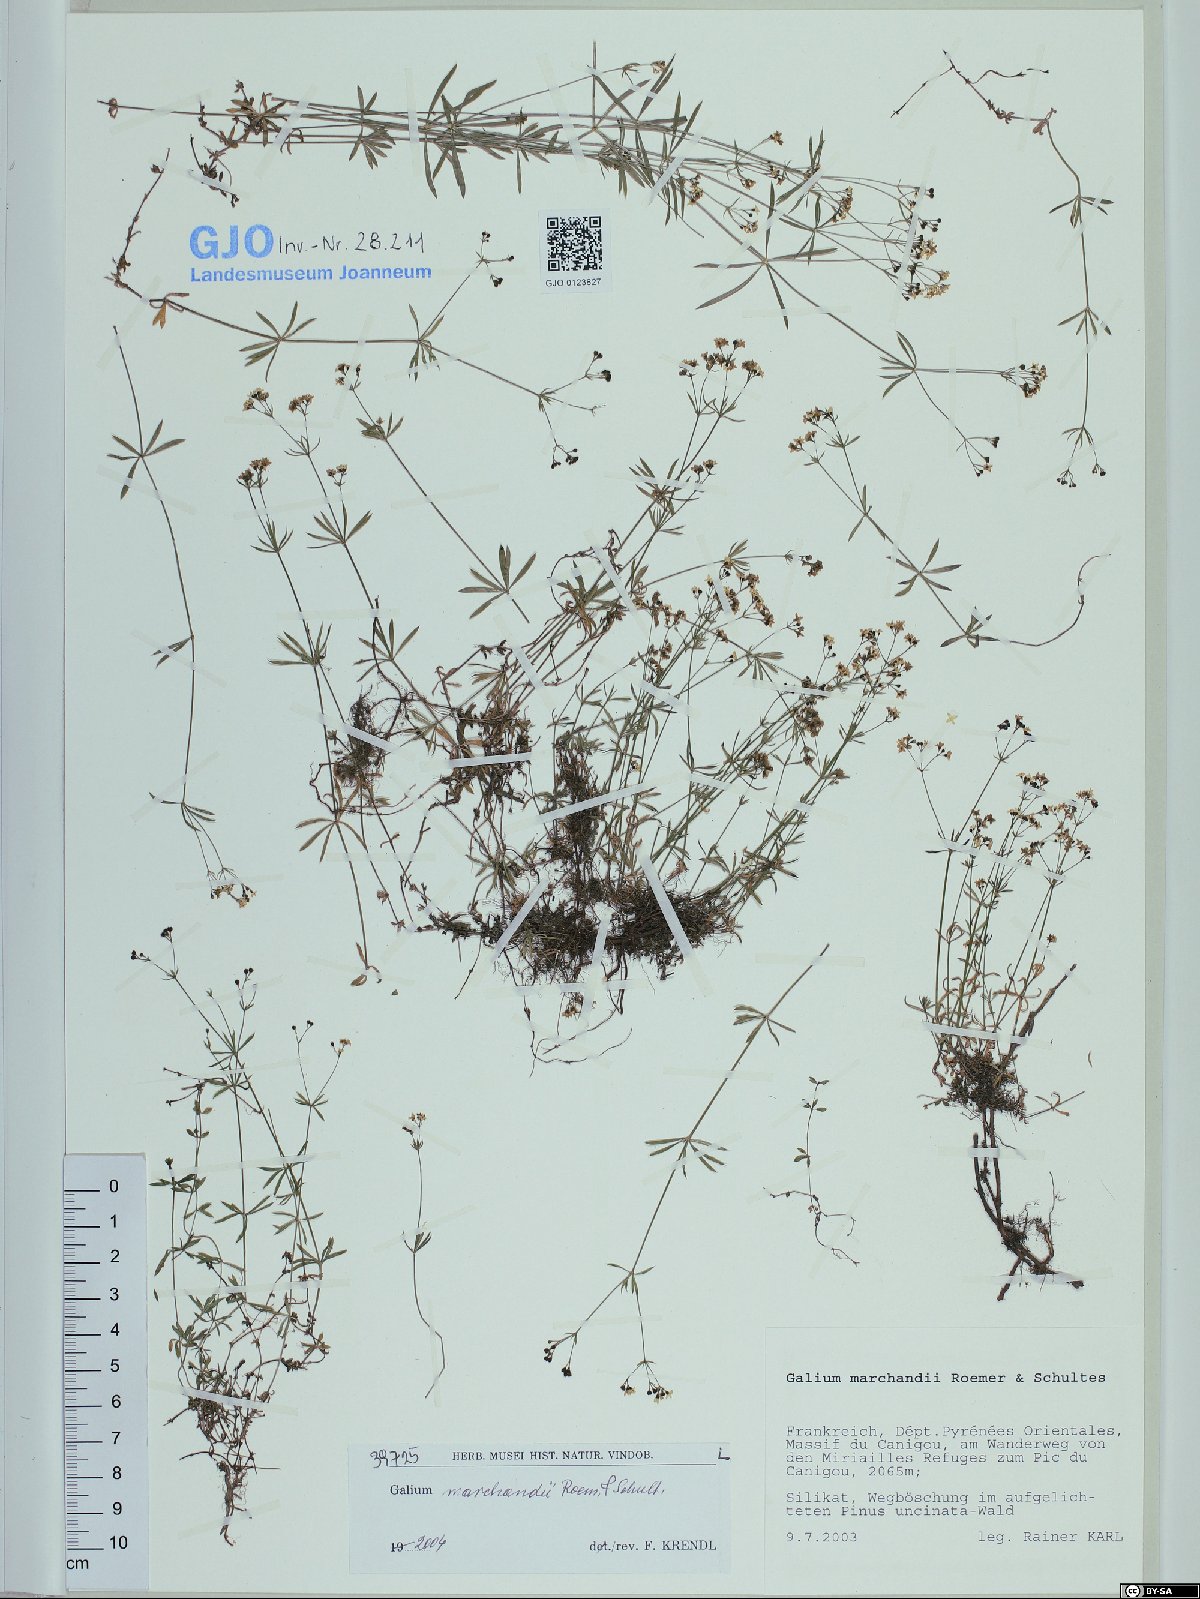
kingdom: Plantae
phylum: Tracheophyta
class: Magnoliopsida
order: Gentianales
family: Rubiaceae
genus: Galium
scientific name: Galium marchandii
